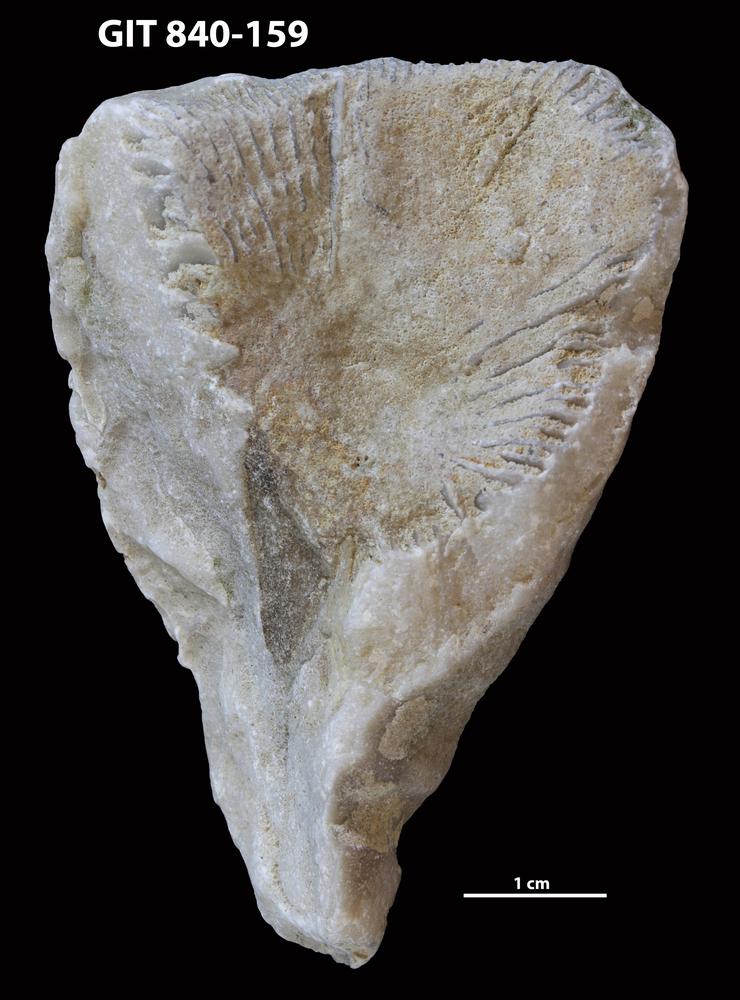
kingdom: Animalia
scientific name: Animalia
